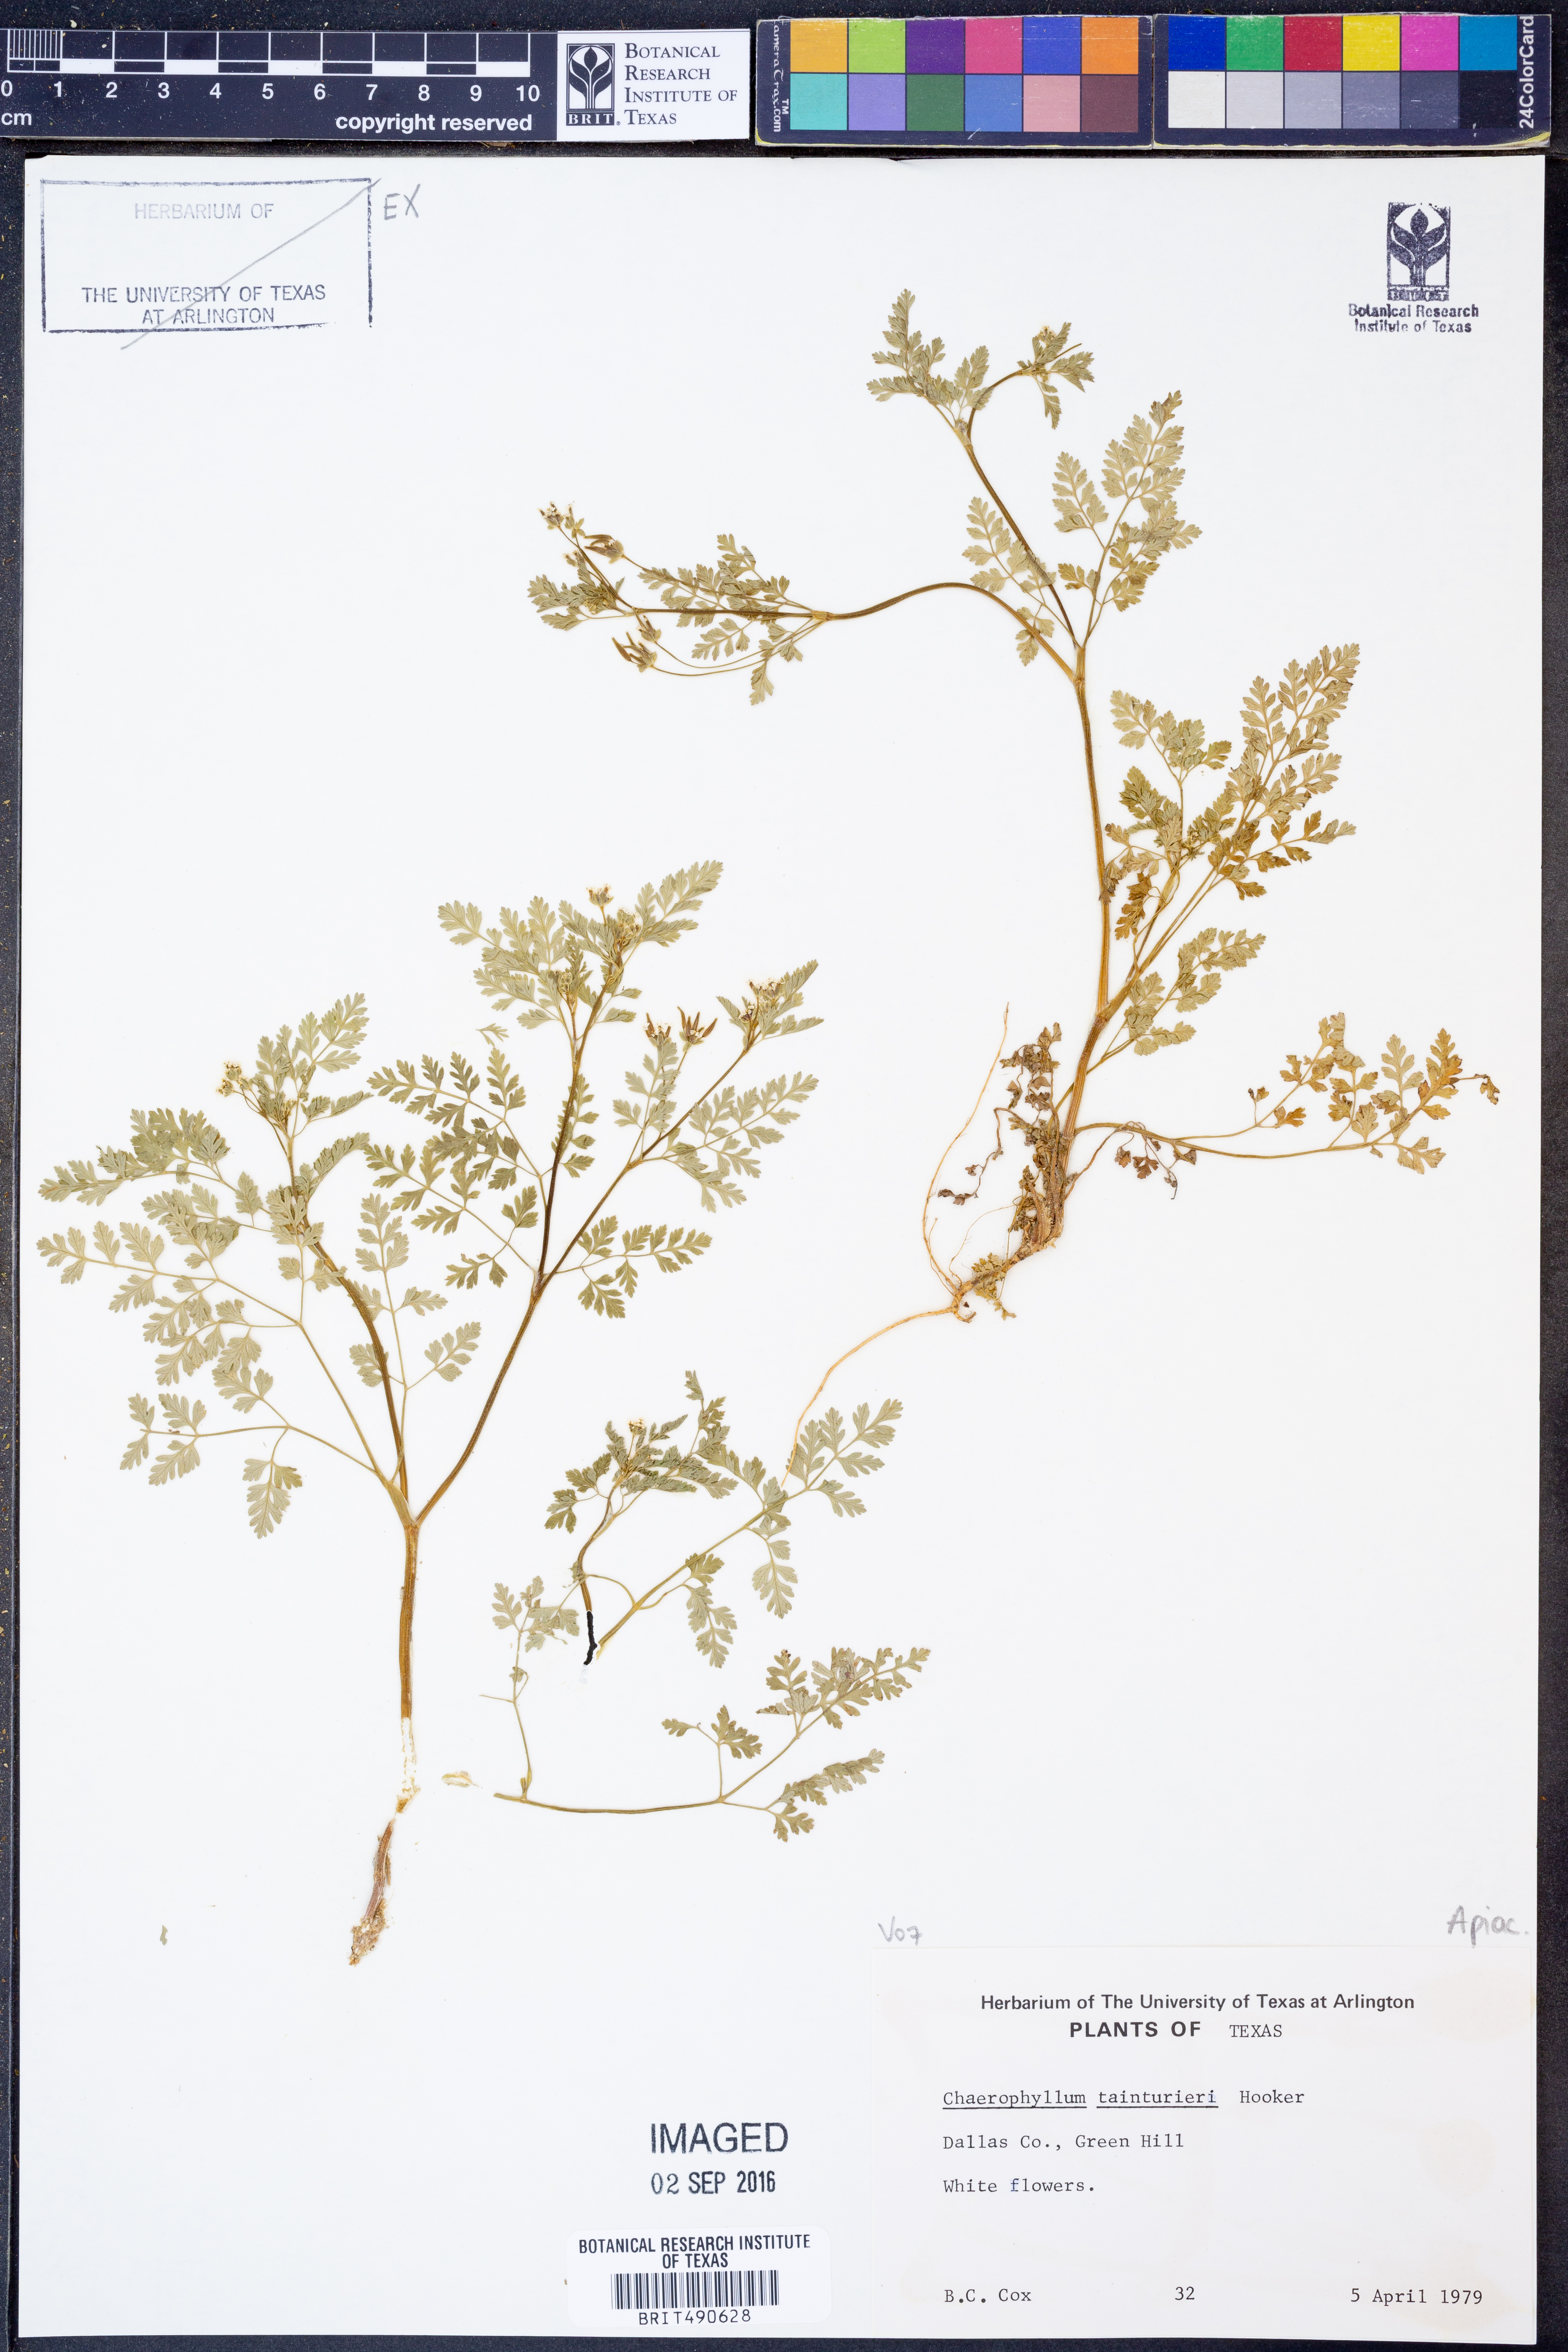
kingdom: Plantae
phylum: Tracheophyta
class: Magnoliopsida
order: Apiales
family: Apiaceae
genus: Chaerophyllum
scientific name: Chaerophyllum tainturieri
